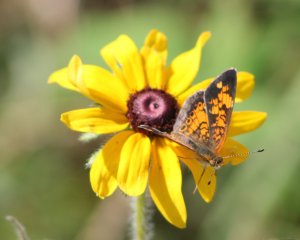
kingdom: Animalia
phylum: Arthropoda
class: Insecta
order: Lepidoptera
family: Nymphalidae
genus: Phyciodes
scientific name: Phyciodes tharos
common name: Pearl Crescent
